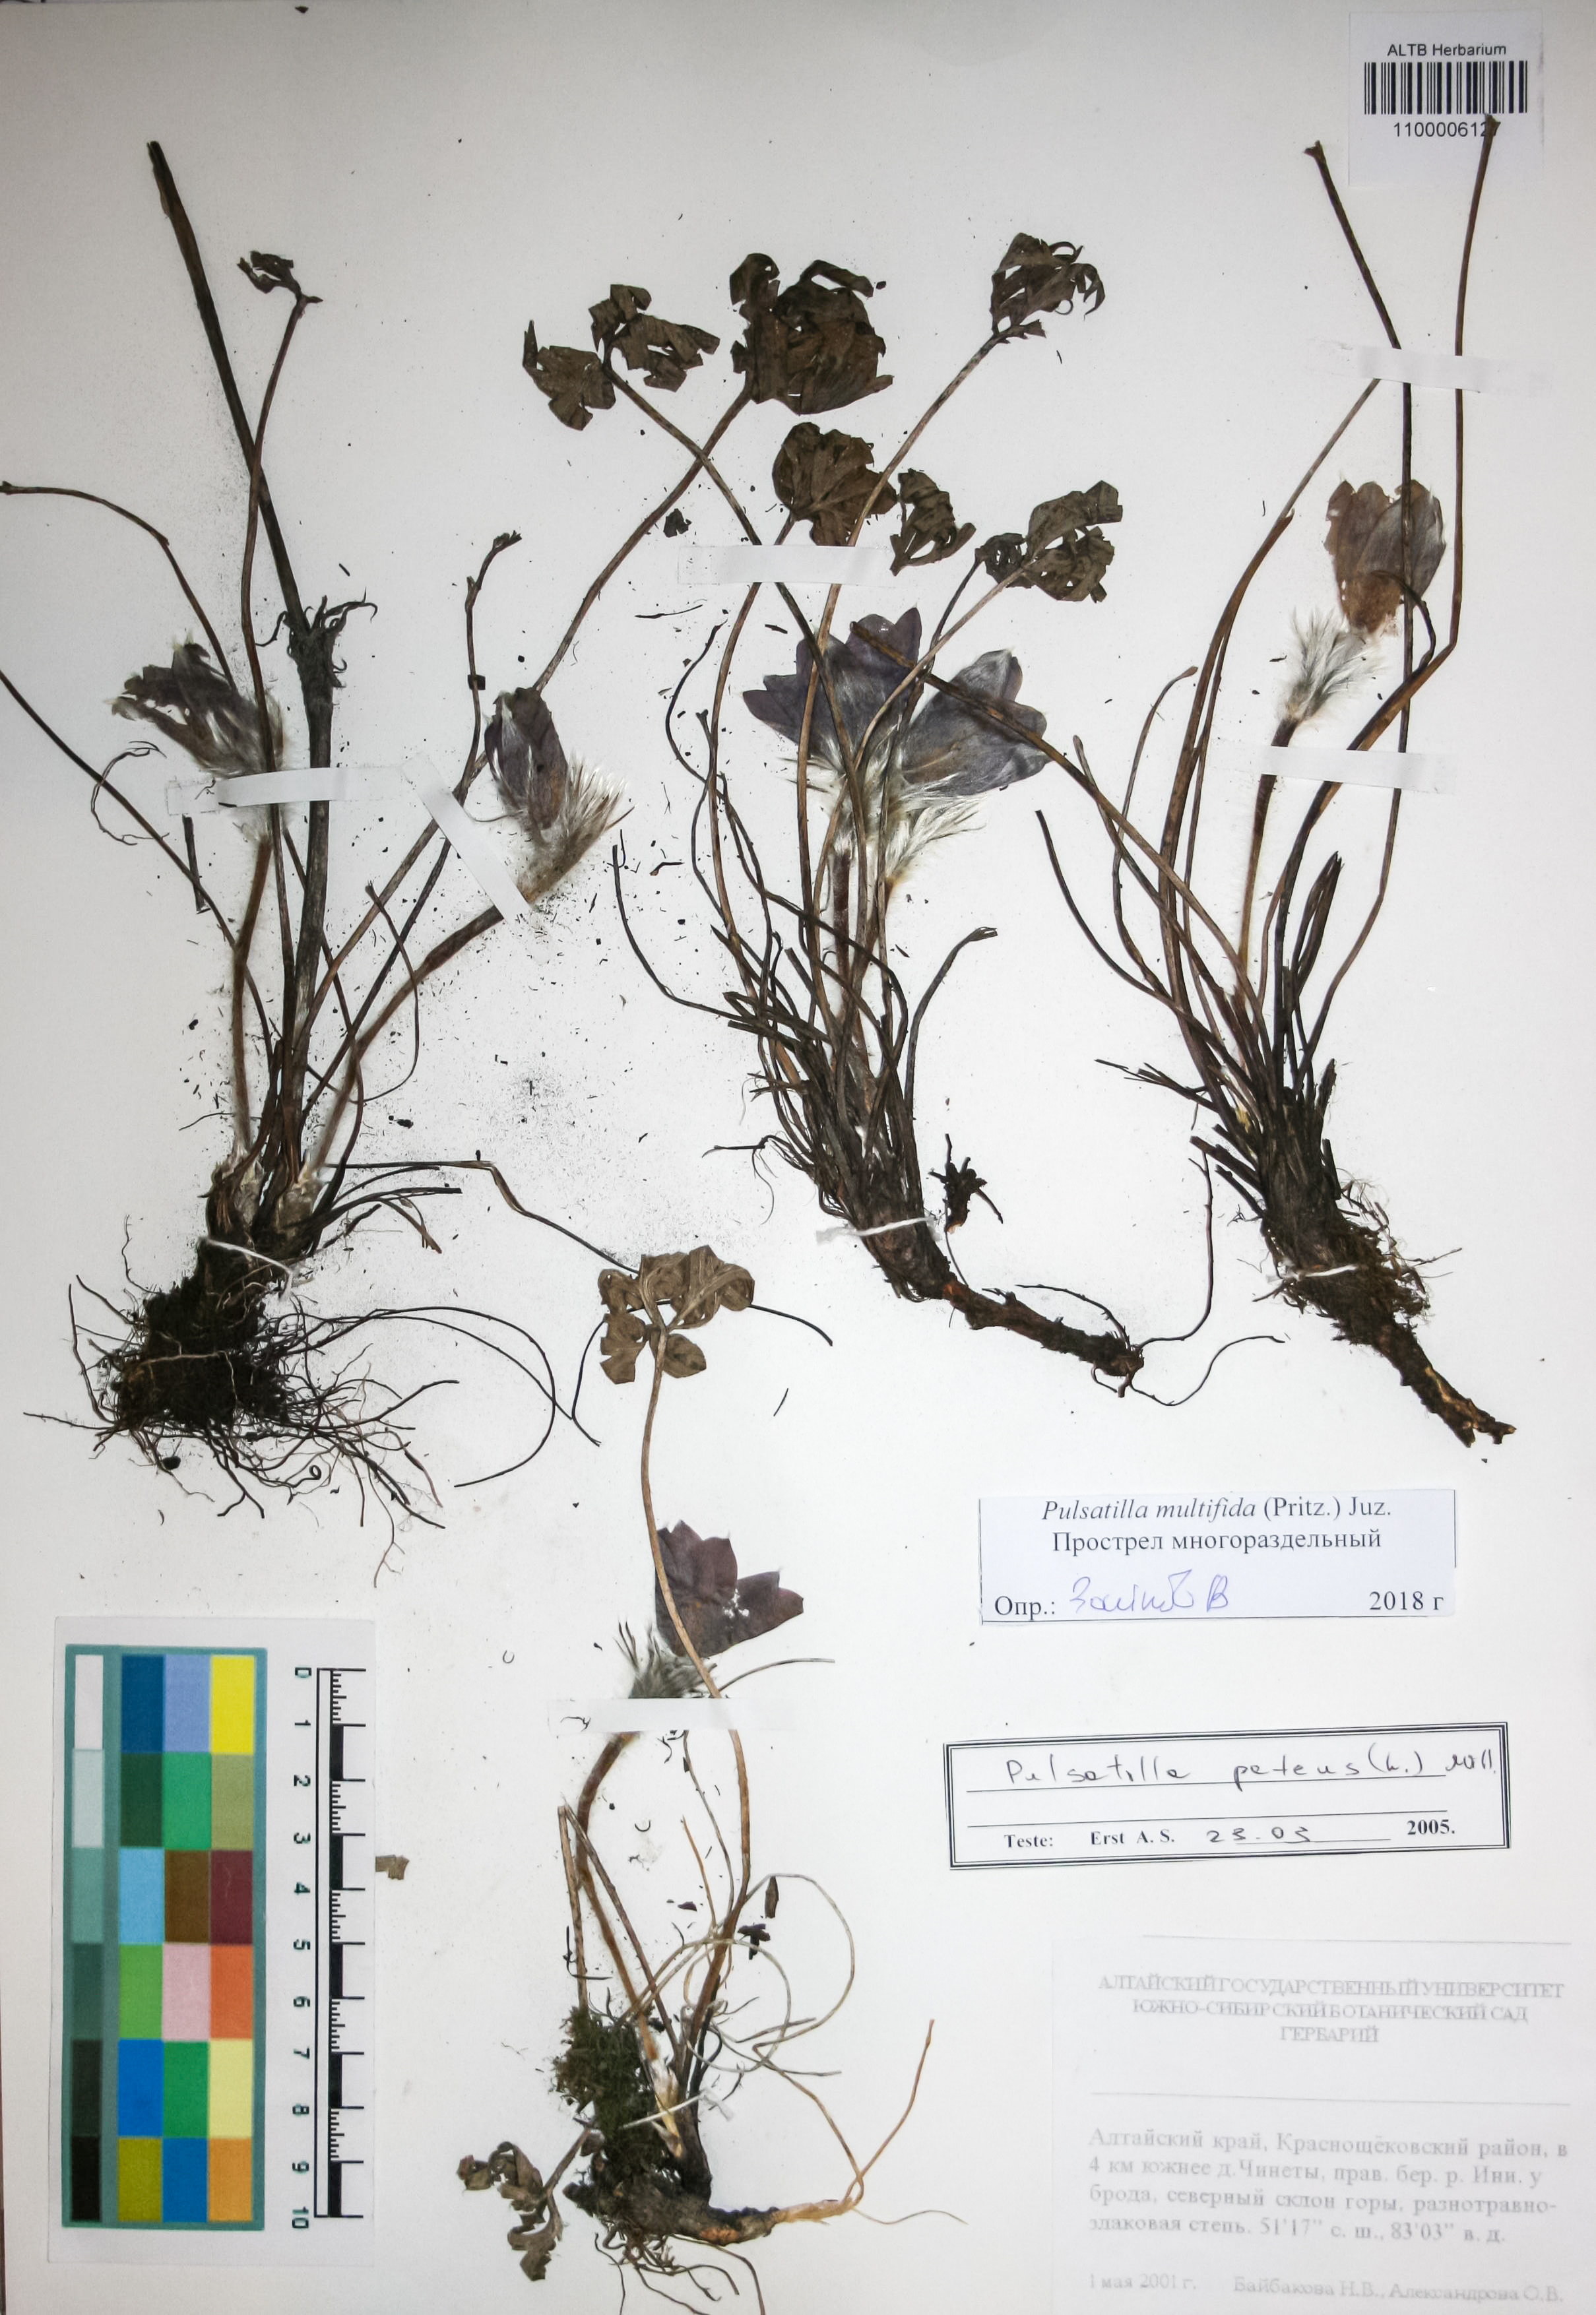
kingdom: Plantae
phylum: Tracheophyta
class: Magnoliopsida
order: Ranunculales
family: Ranunculaceae
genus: Pulsatilla
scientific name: Pulsatilla patens
